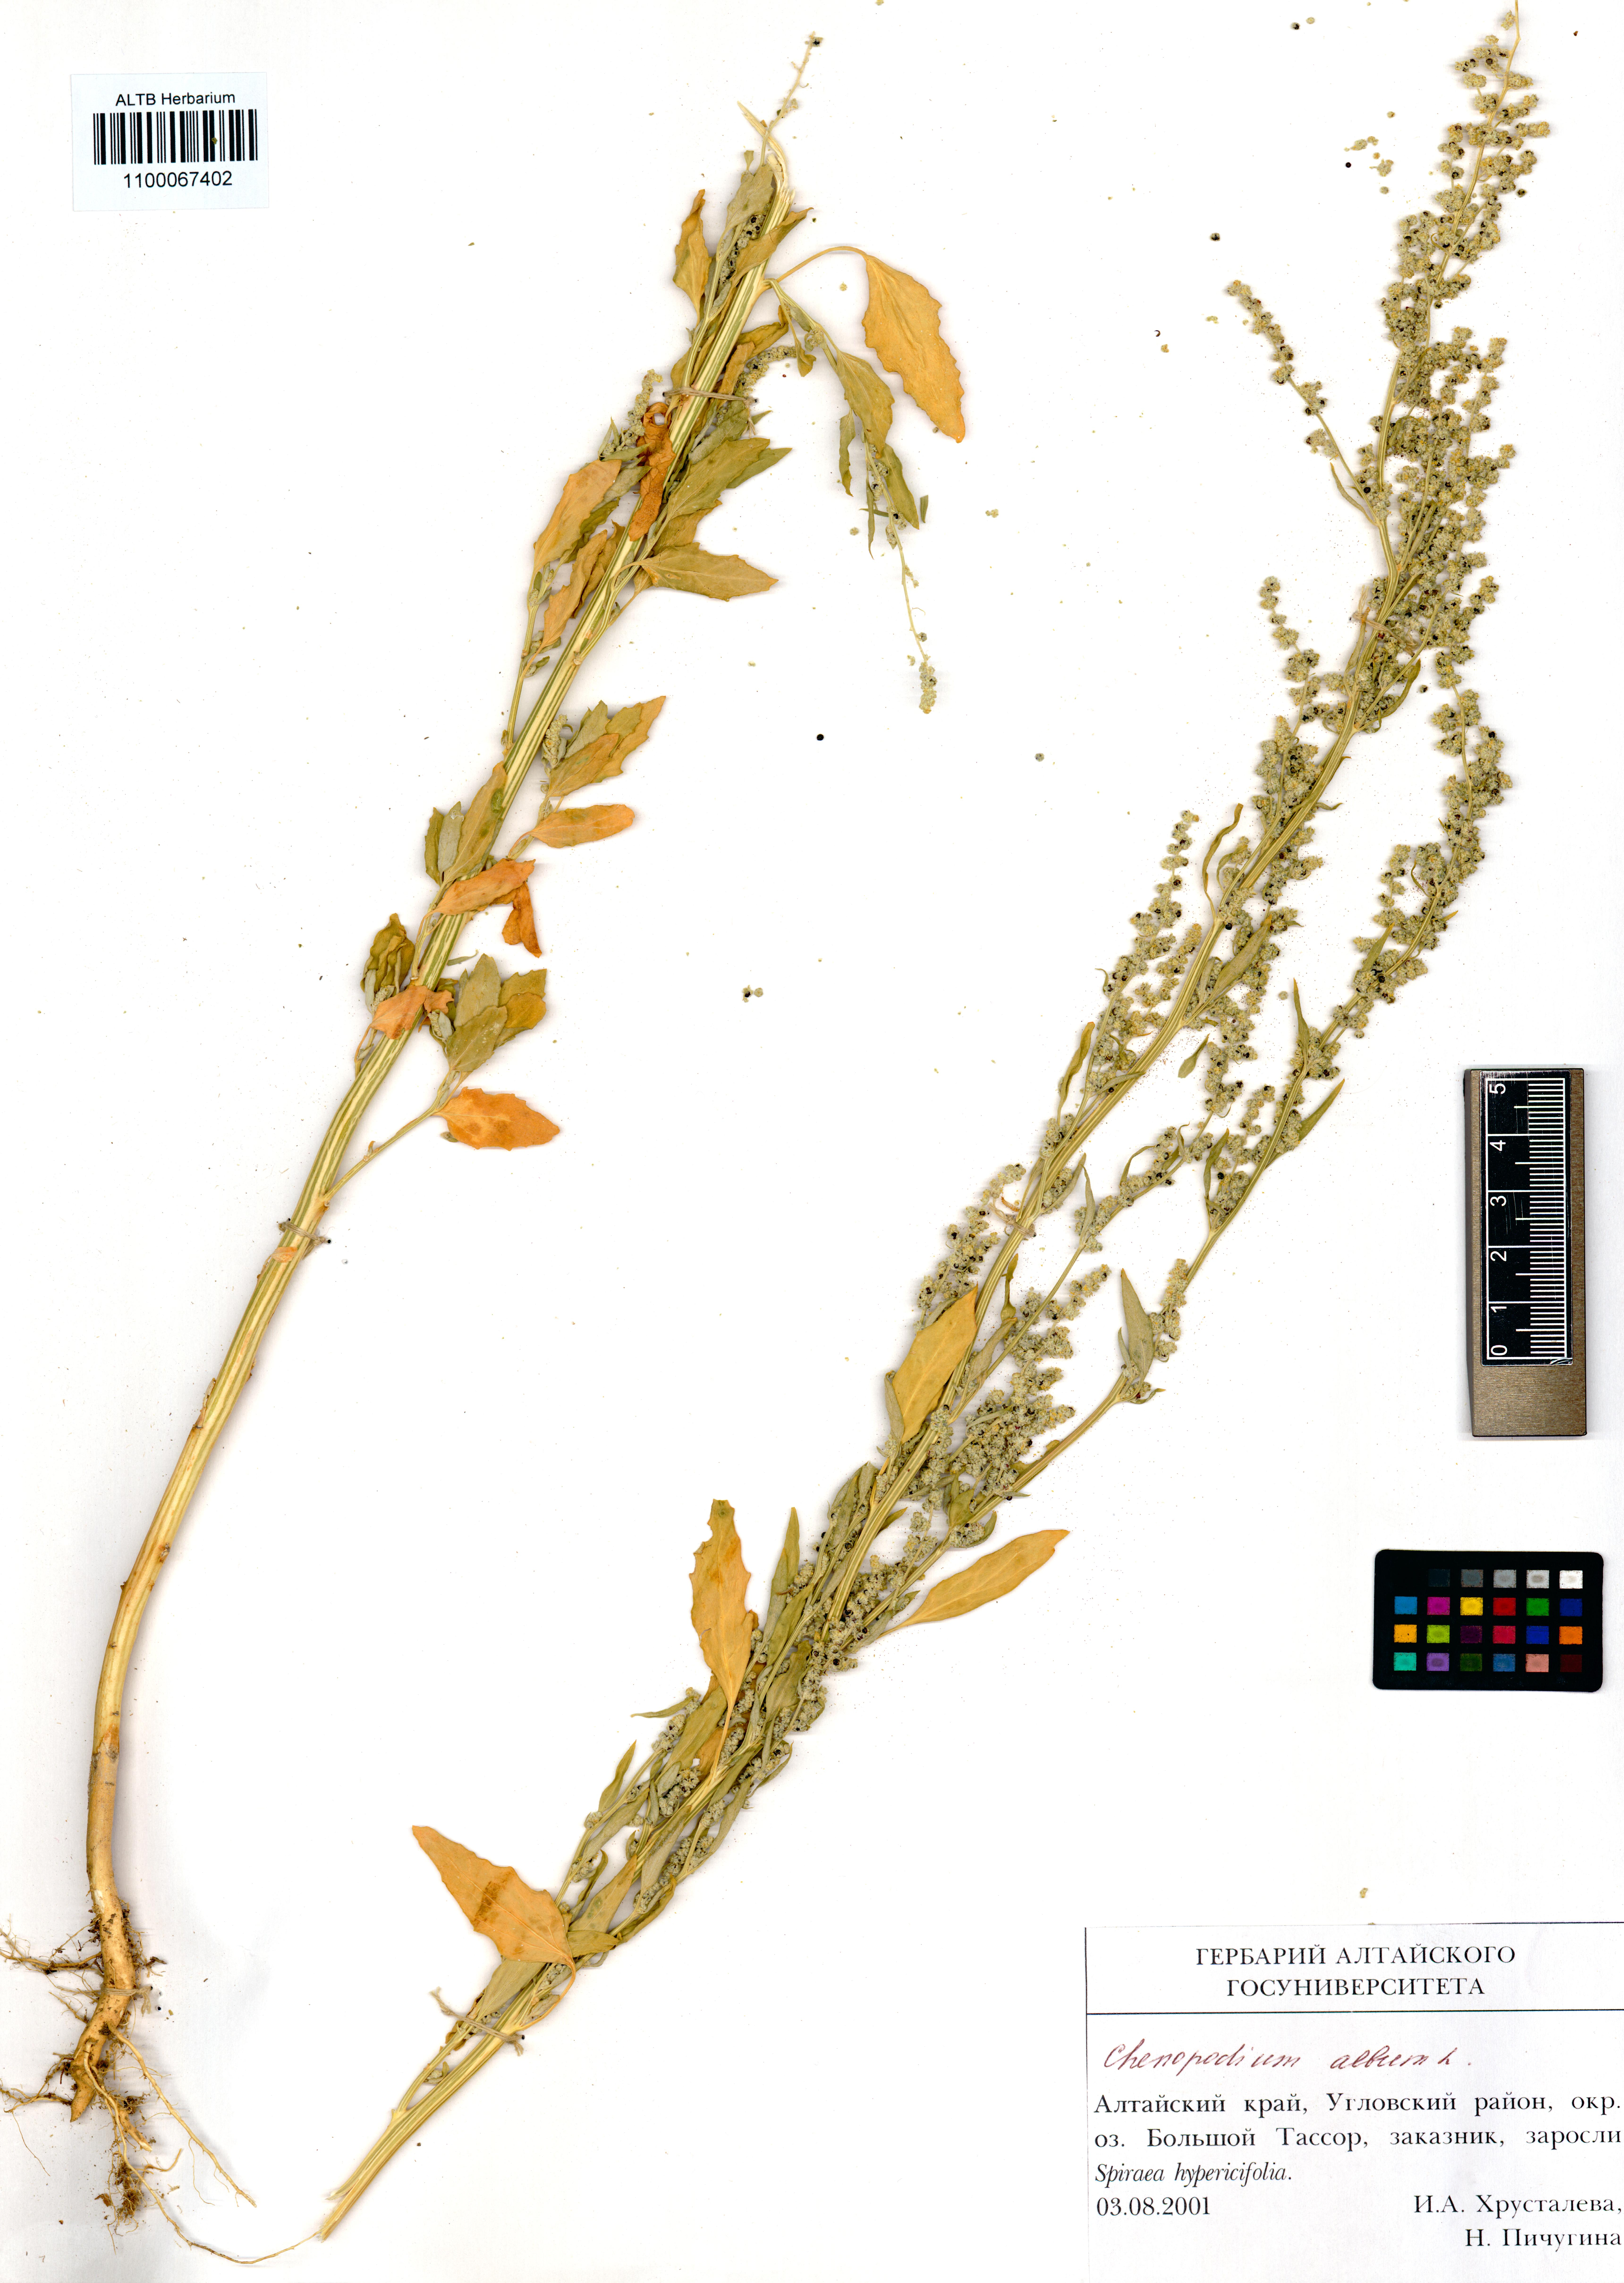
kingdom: Plantae
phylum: Tracheophyta
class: Magnoliopsida
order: Caryophyllales
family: Amaranthaceae
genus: Chenopodium
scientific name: Chenopodium album
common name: Fat-hen
